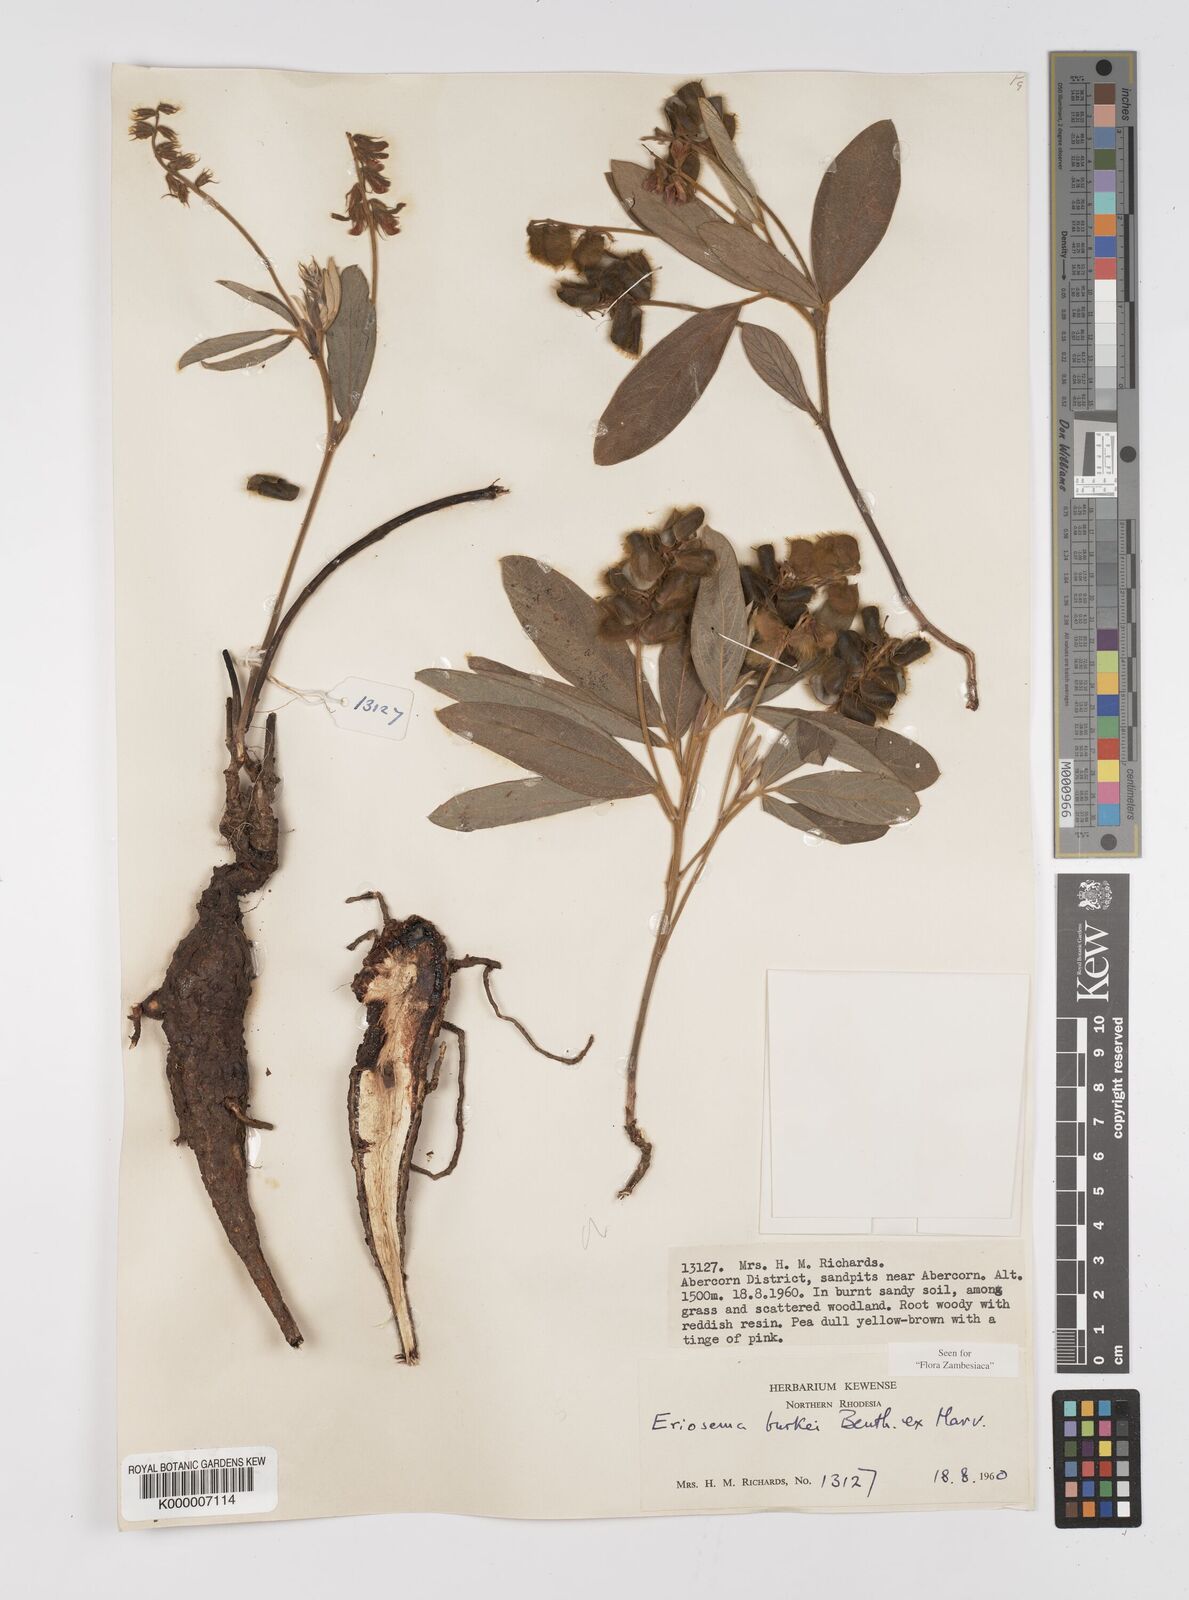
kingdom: Plantae
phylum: Tracheophyta
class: Magnoliopsida
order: Fabales
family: Fabaceae
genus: Eriosema
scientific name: Eriosema burkei
